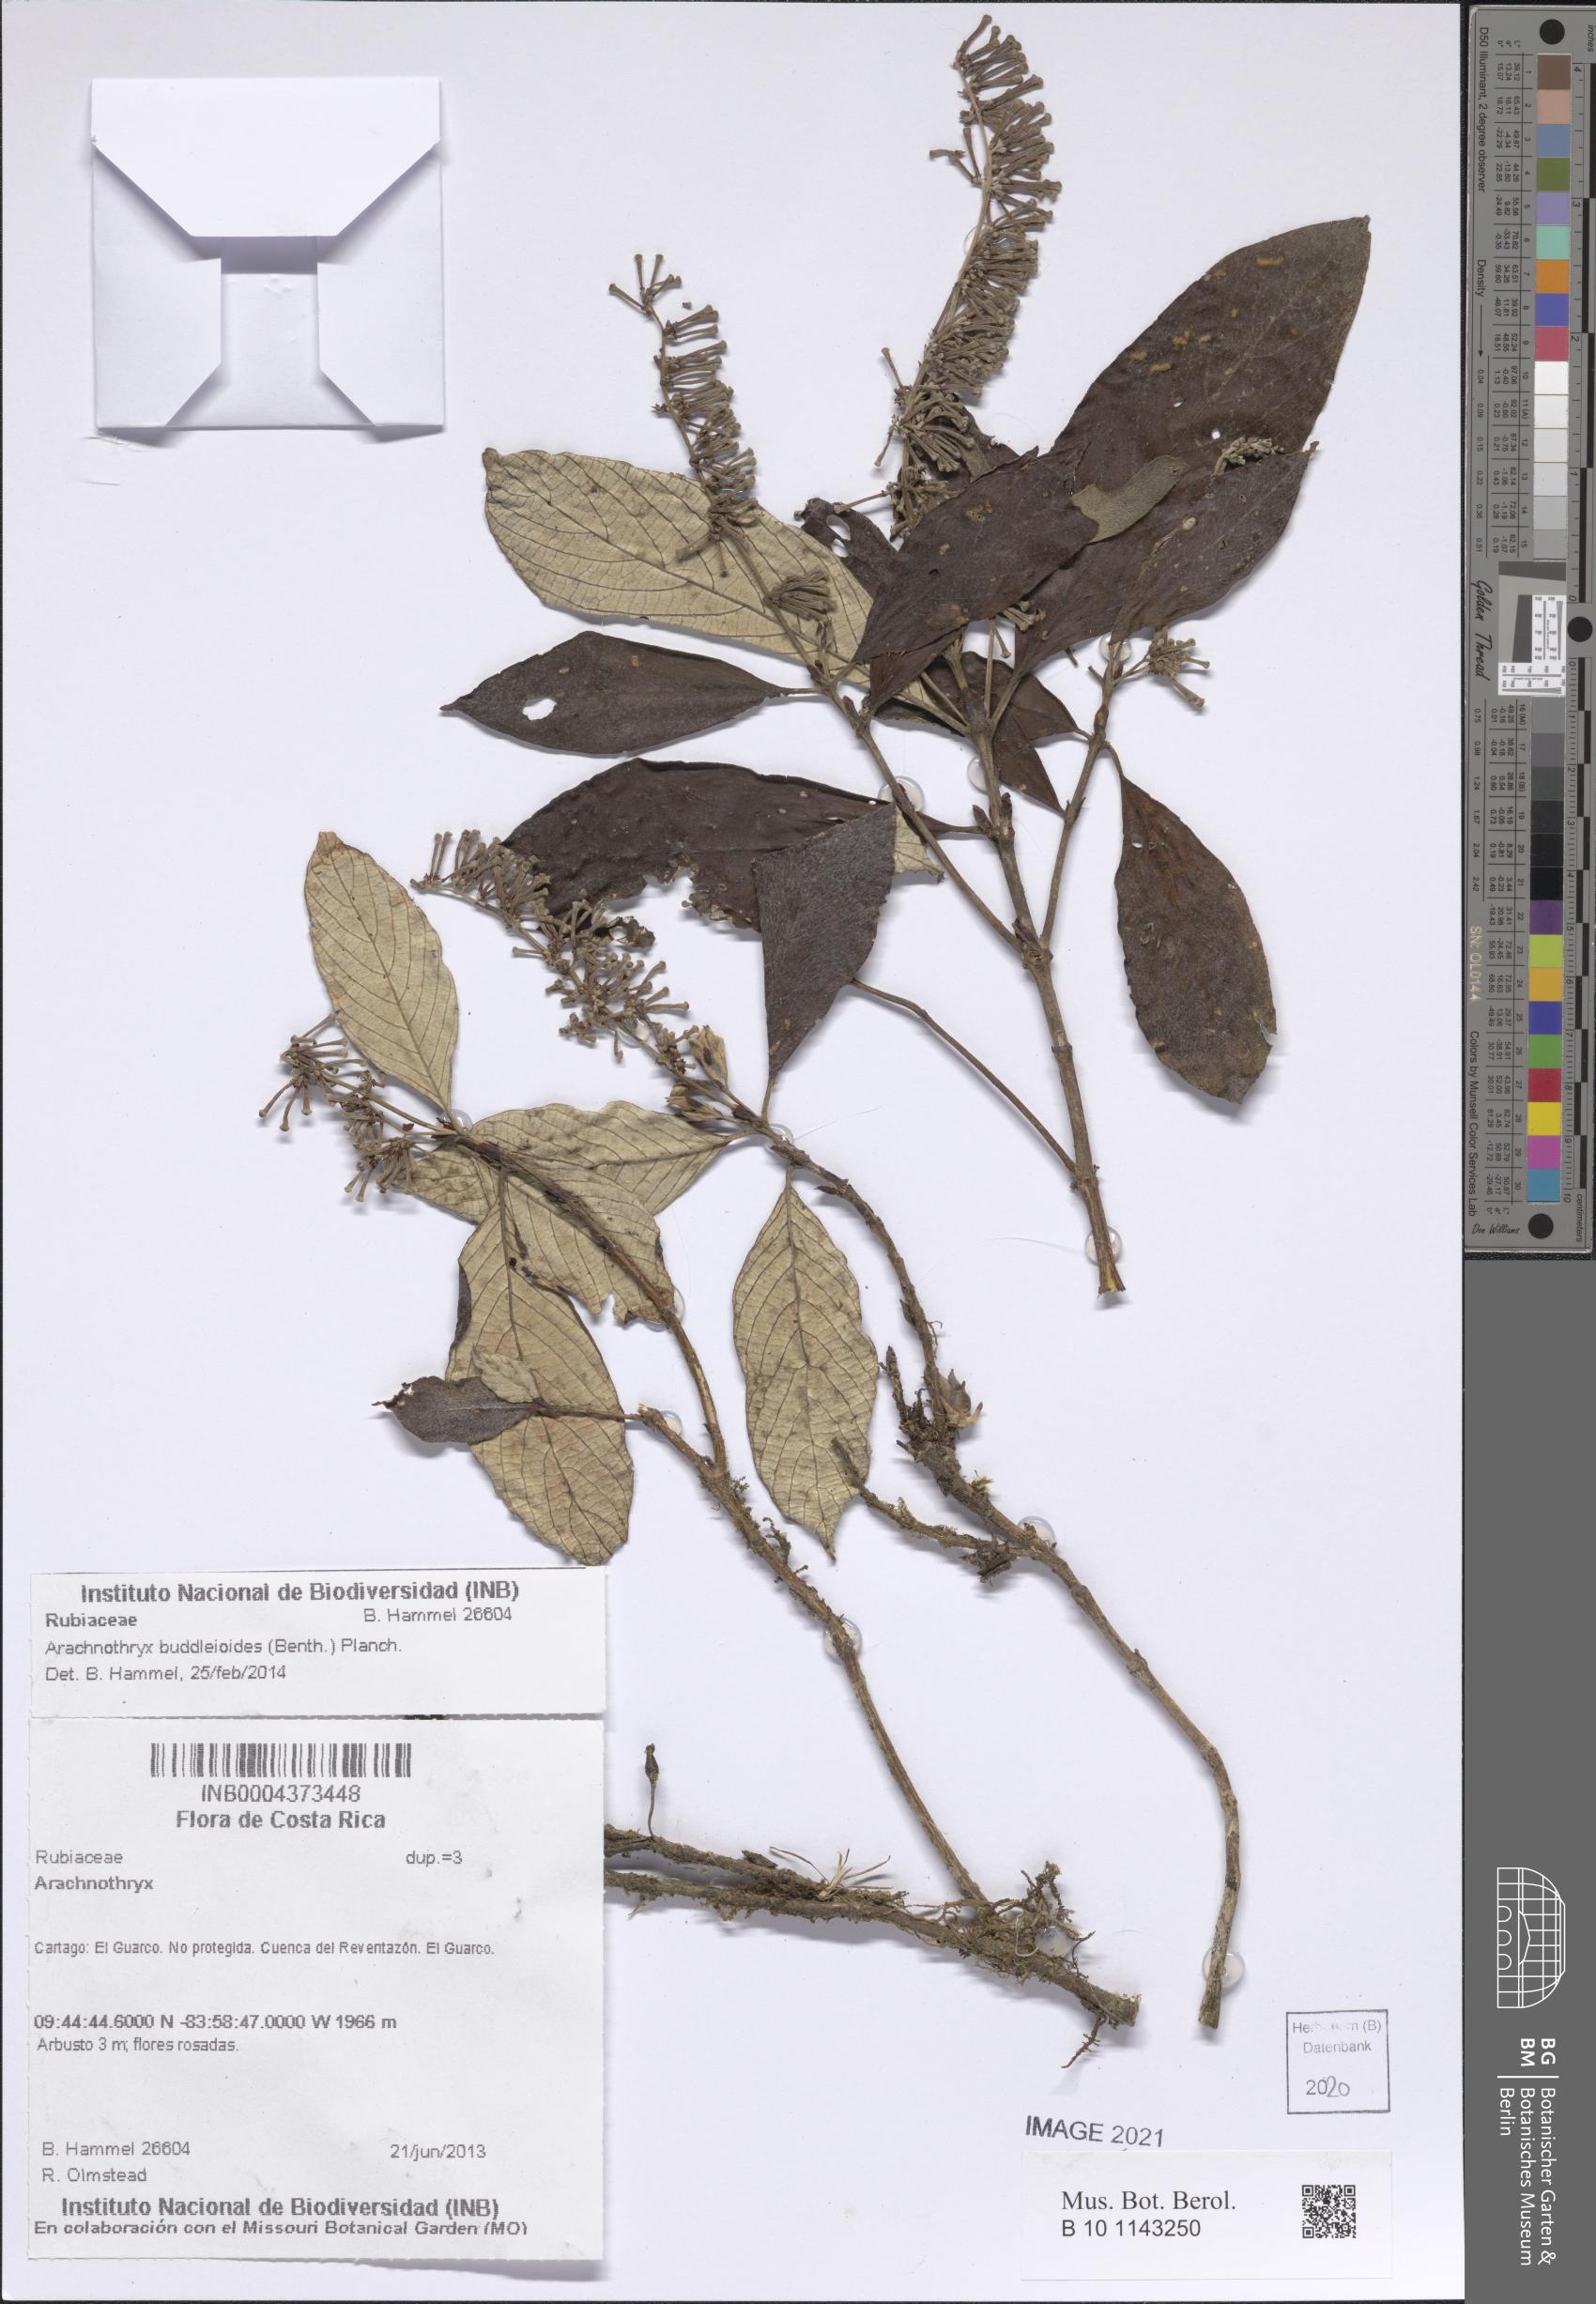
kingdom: Plantae
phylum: Tracheophyta
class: Magnoliopsida
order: Gentianales
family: Rubiaceae
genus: Arachnothryx
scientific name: Arachnothryx buddleioides
